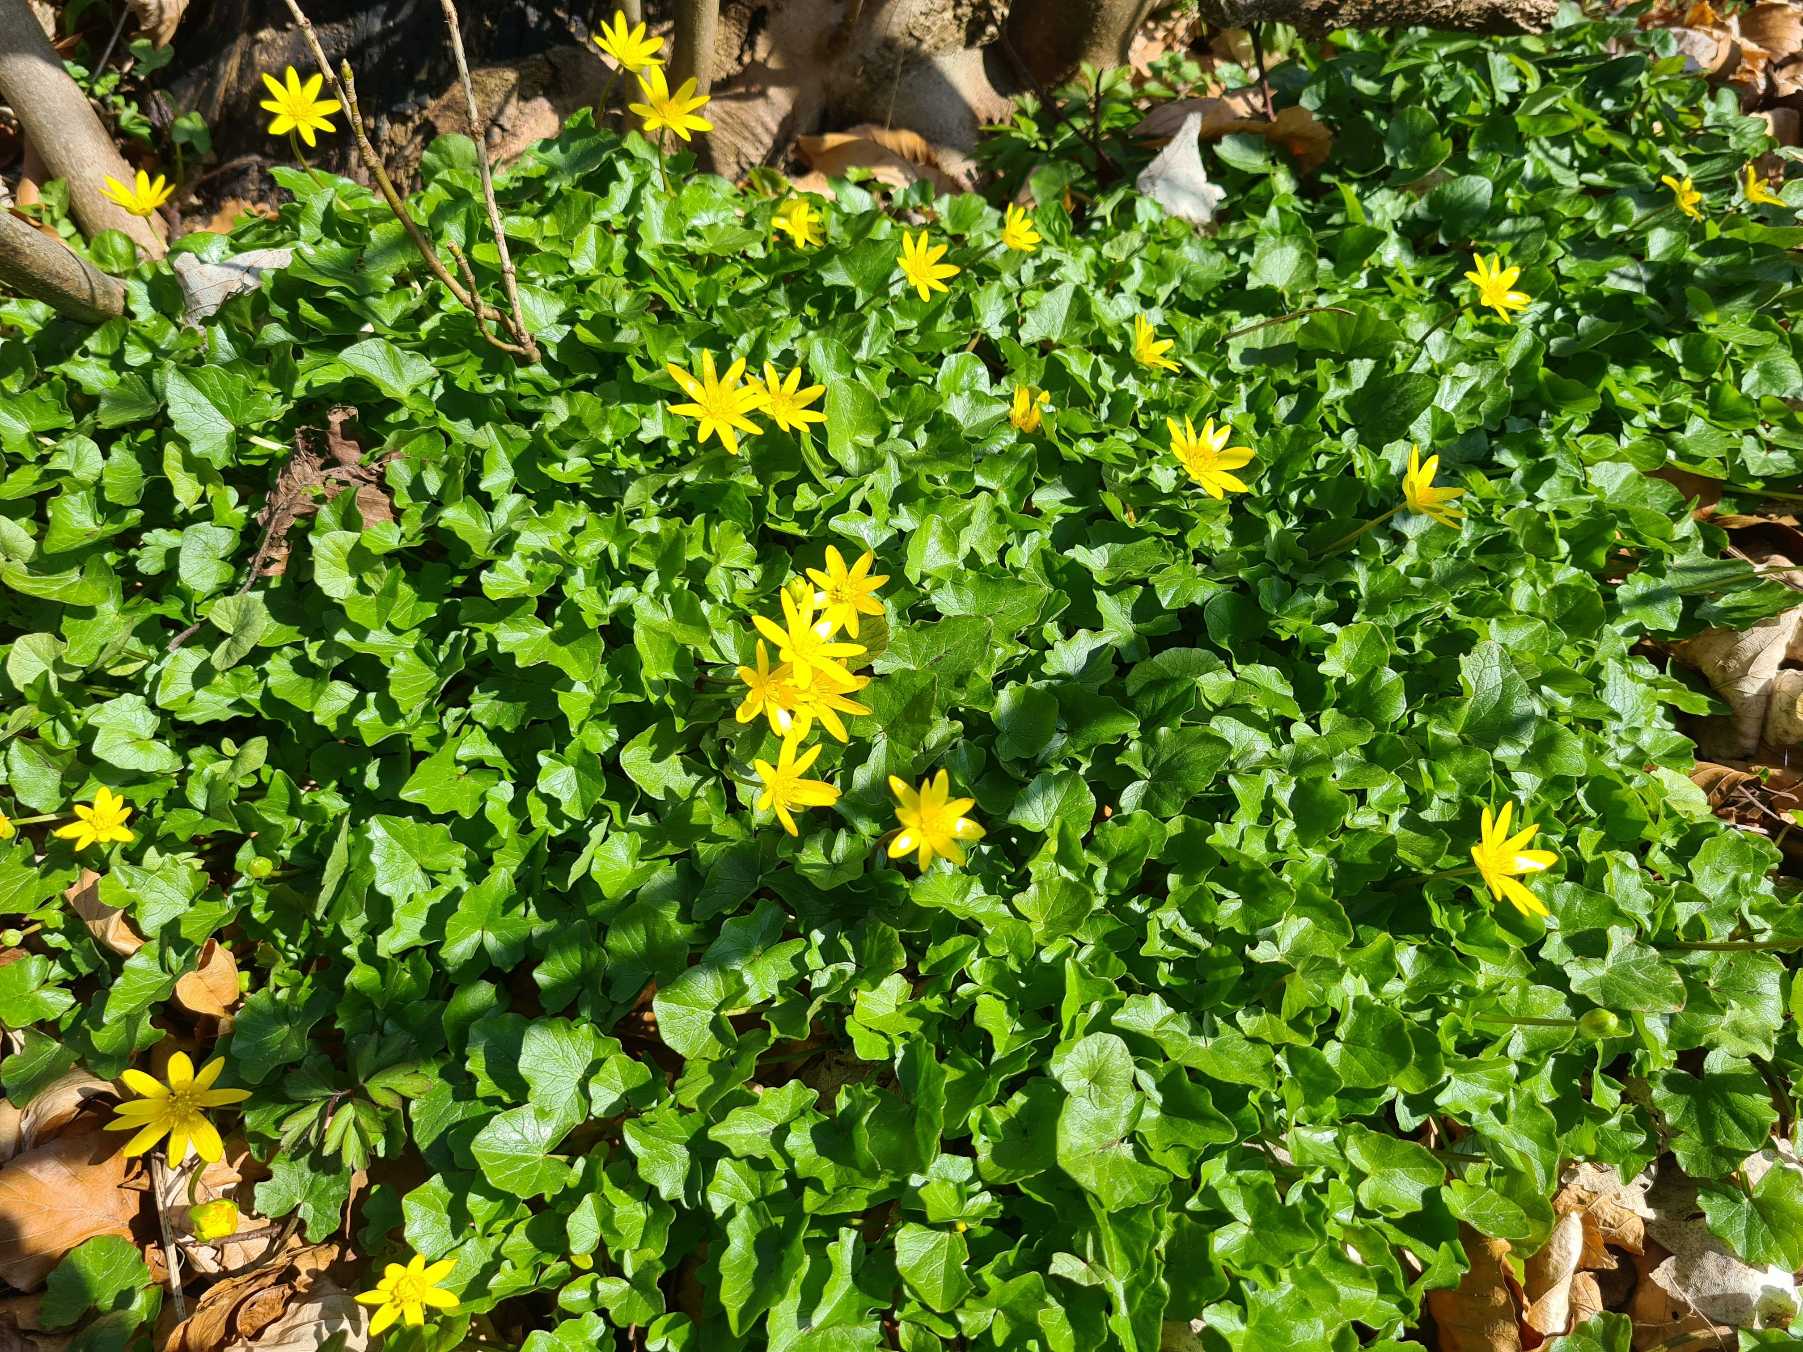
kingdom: Plantae
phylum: Tracheophyta
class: Magnoliopsida
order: Ranunculales
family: Ranunculaceae
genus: Ficaria
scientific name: Ficaria verna
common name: Vorterod
